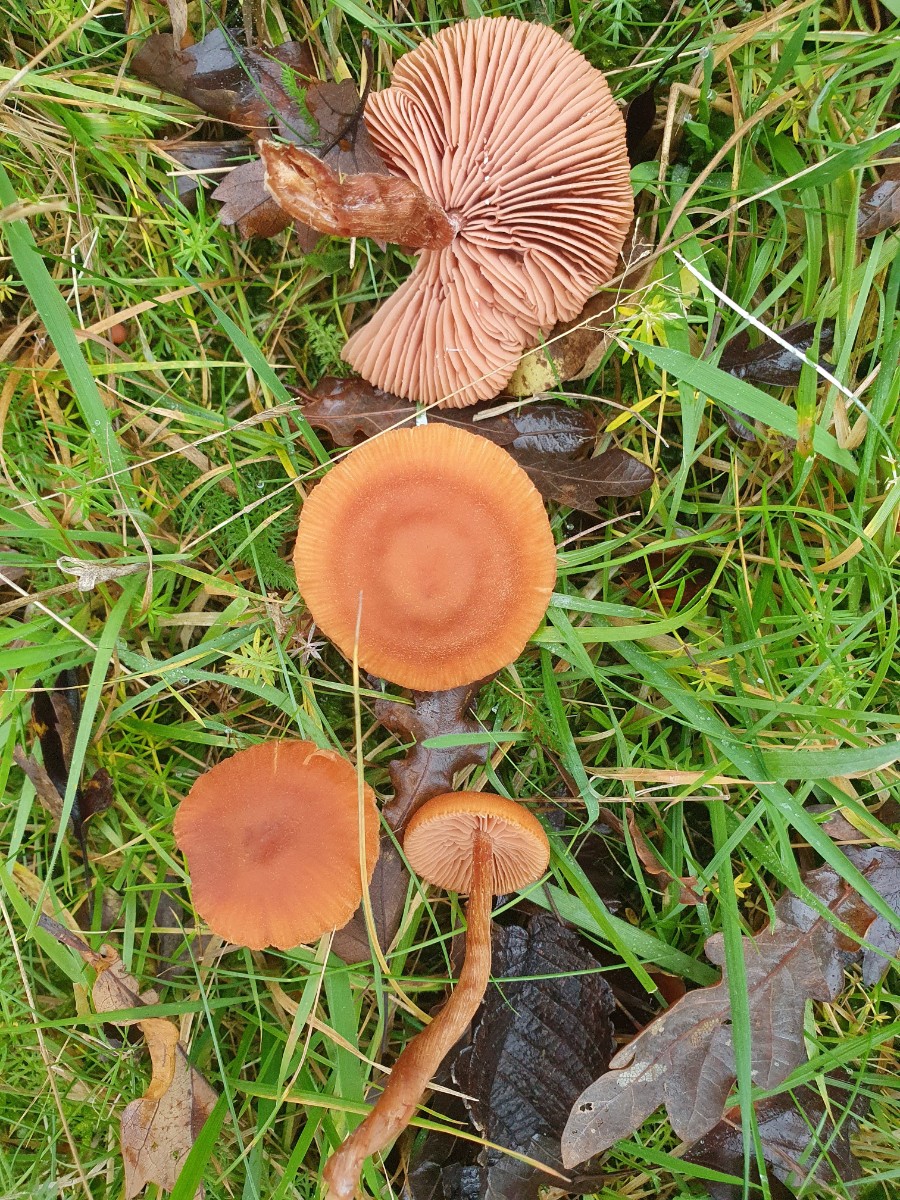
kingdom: Fungi
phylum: Basidiomycota
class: Agaricomycetes
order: Agaricales
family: Hydnangiaceae
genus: Laccaria
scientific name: Laccaria proxima
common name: stor ametysthat
